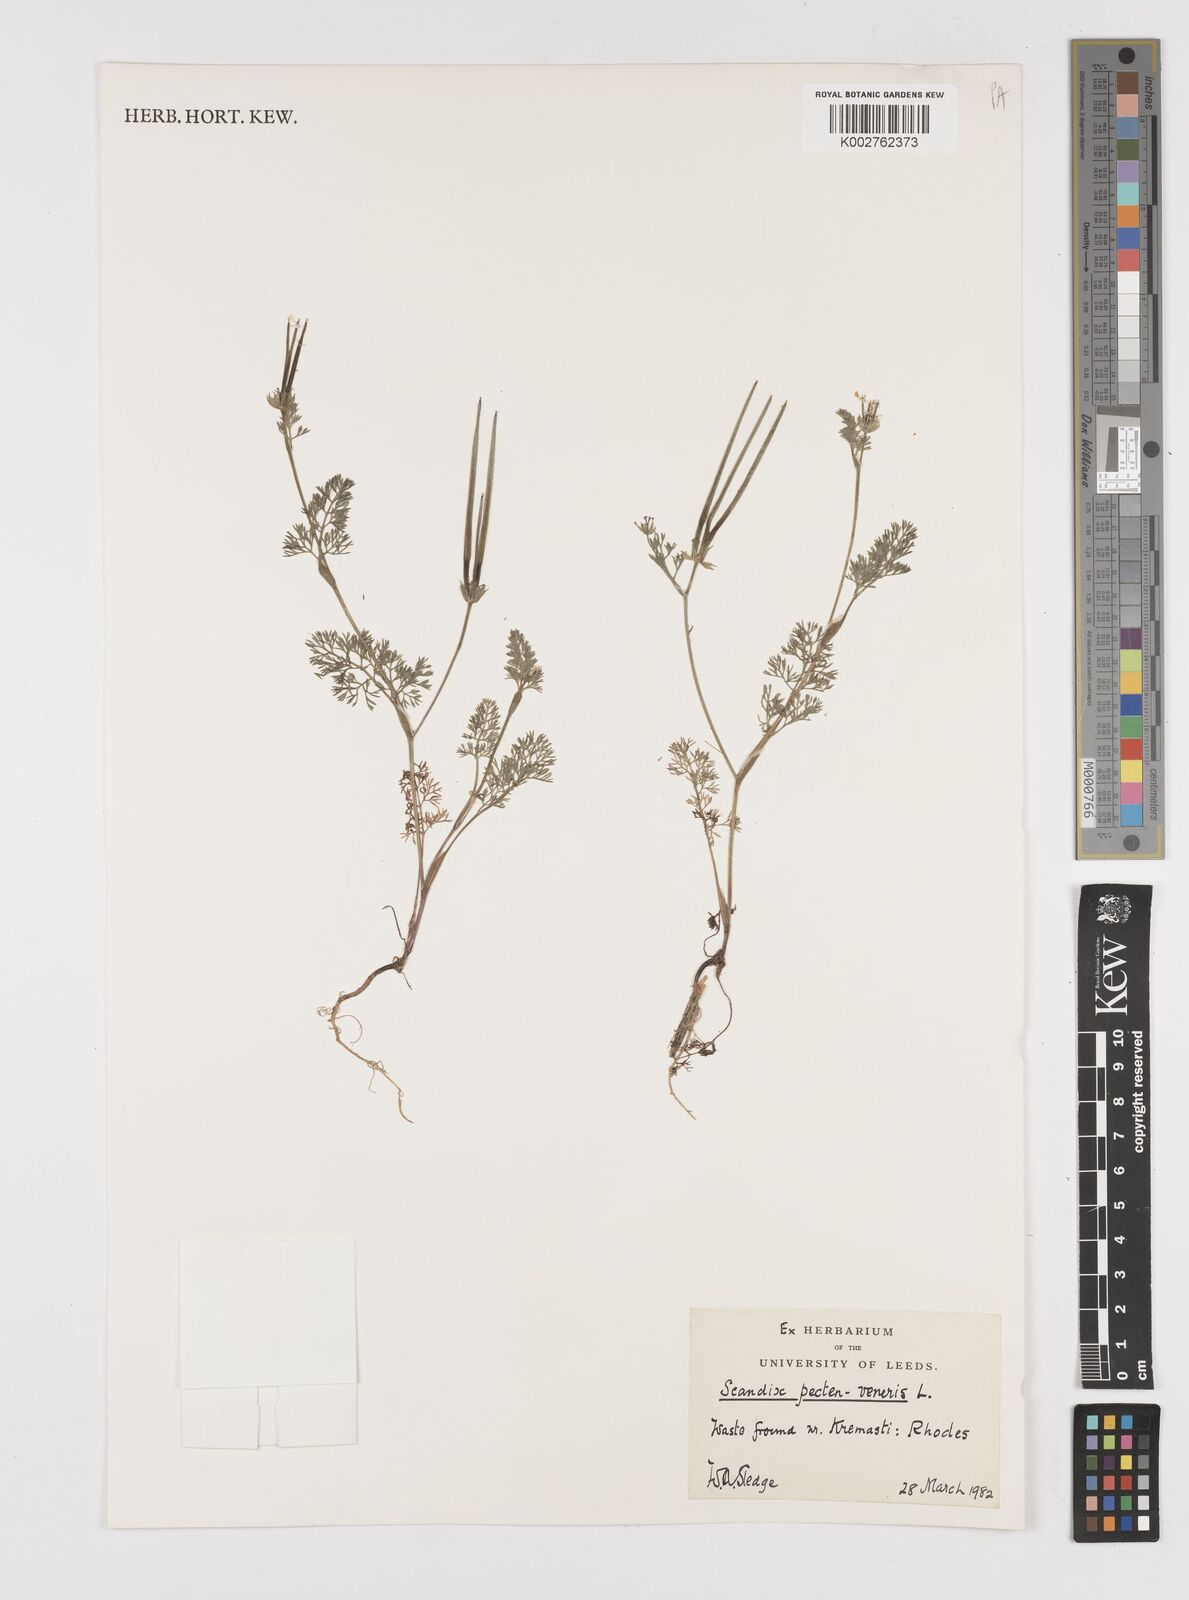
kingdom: Plantae
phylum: Tracheophyta
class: Magnoliopsida
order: Apiales
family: Apiaceae
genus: Scandix
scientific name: Scandix pecten-veneris
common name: Shepherd's-needle
